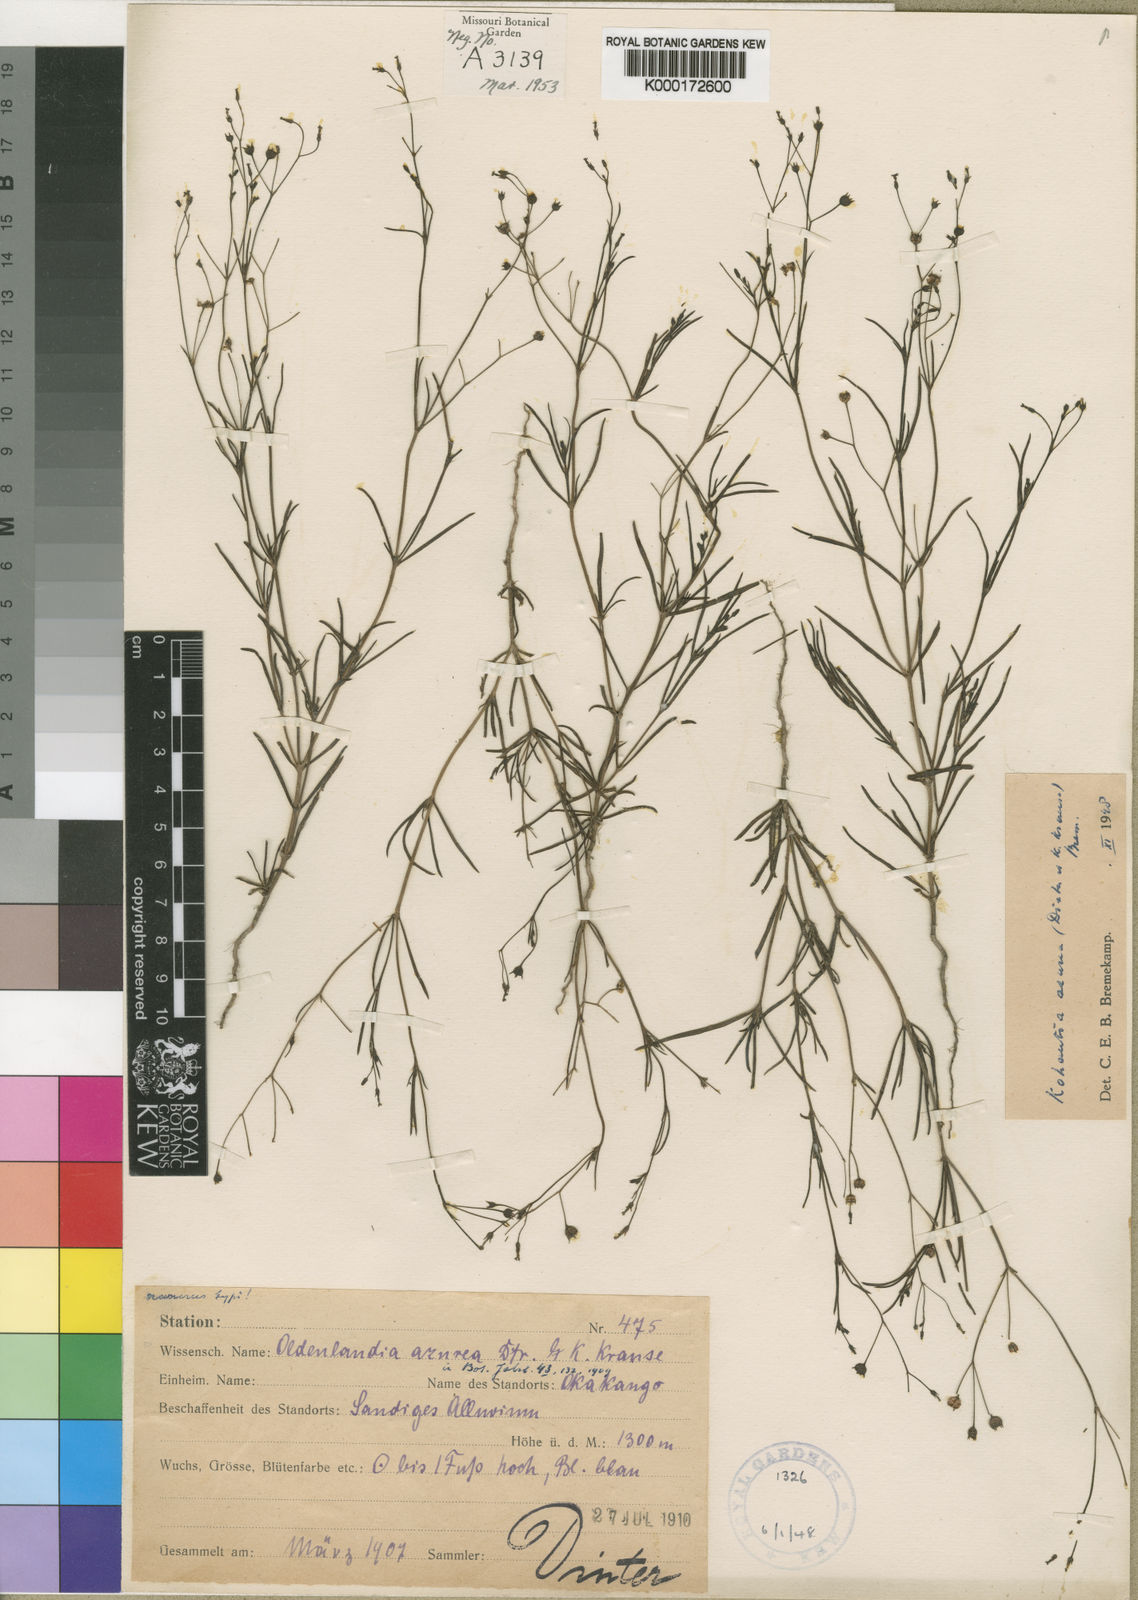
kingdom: Plantae
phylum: Tracheophyta
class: Magnoliopsida
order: Gentianales
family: Rubiaceae
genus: Kohautia
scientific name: Kohautia azurea
